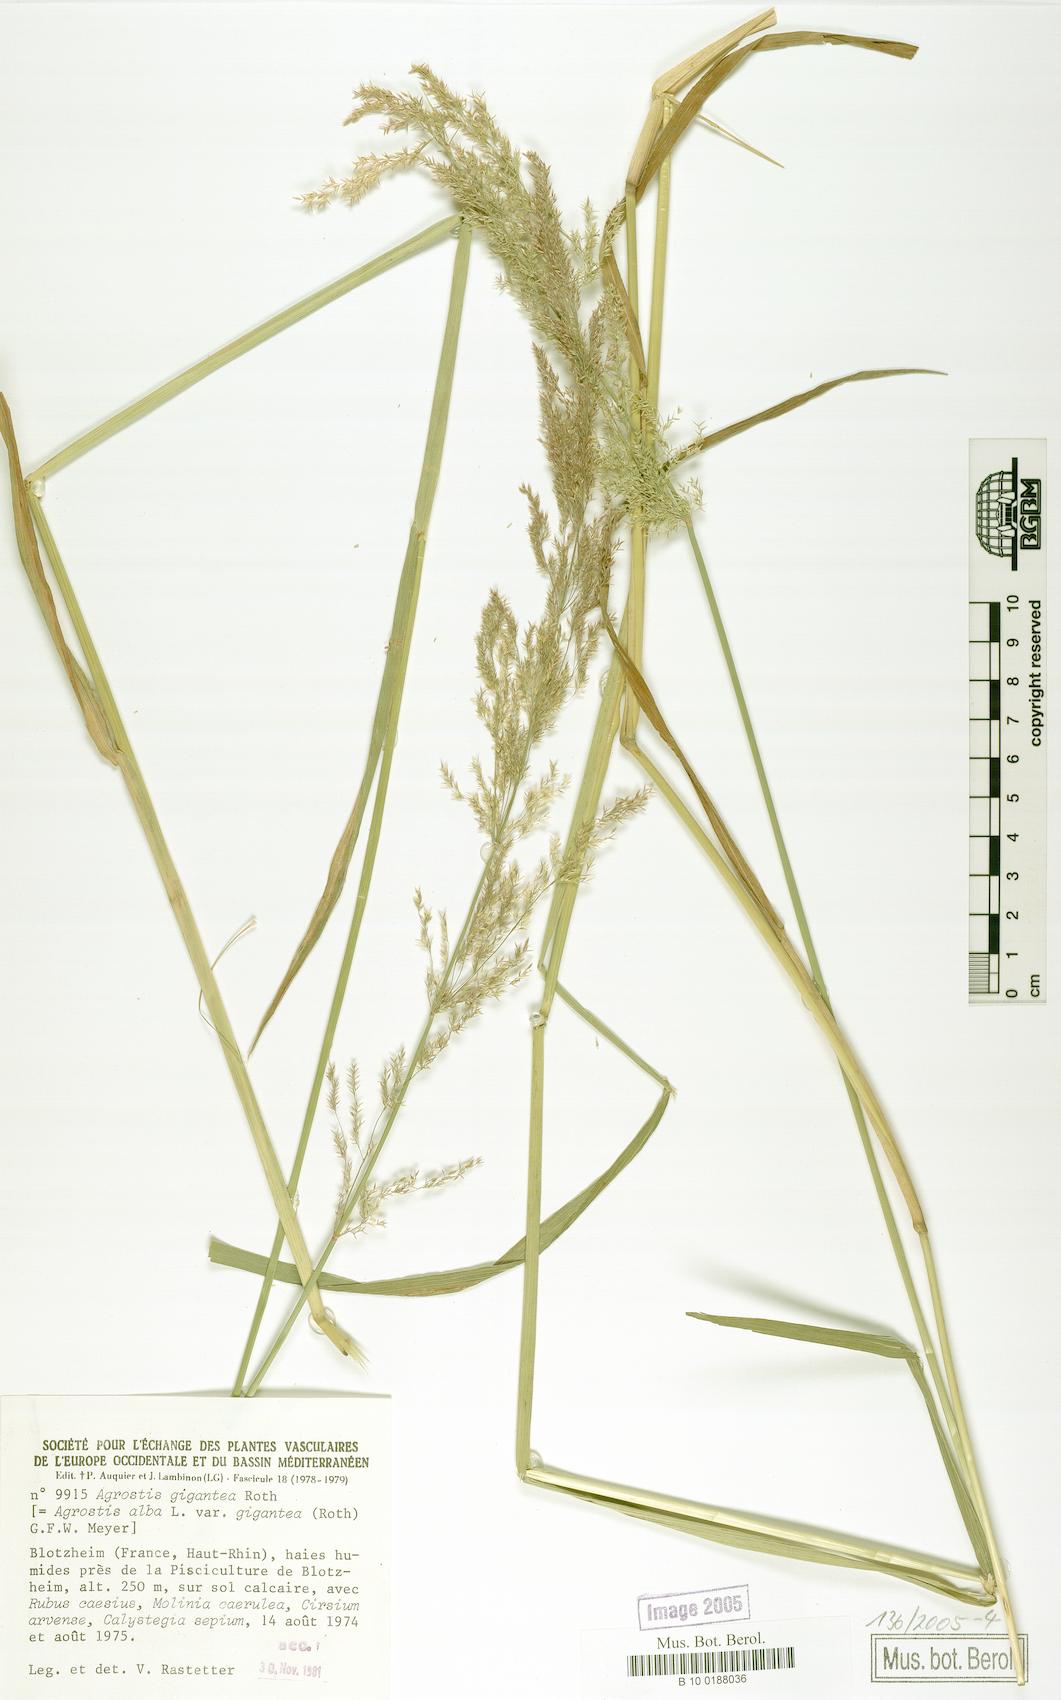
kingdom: Plantae
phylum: Tracheophyta
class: Liliopsida
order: Poales
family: Poaceae
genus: Agrostis
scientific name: Agrostis gigantea
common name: Black bent
